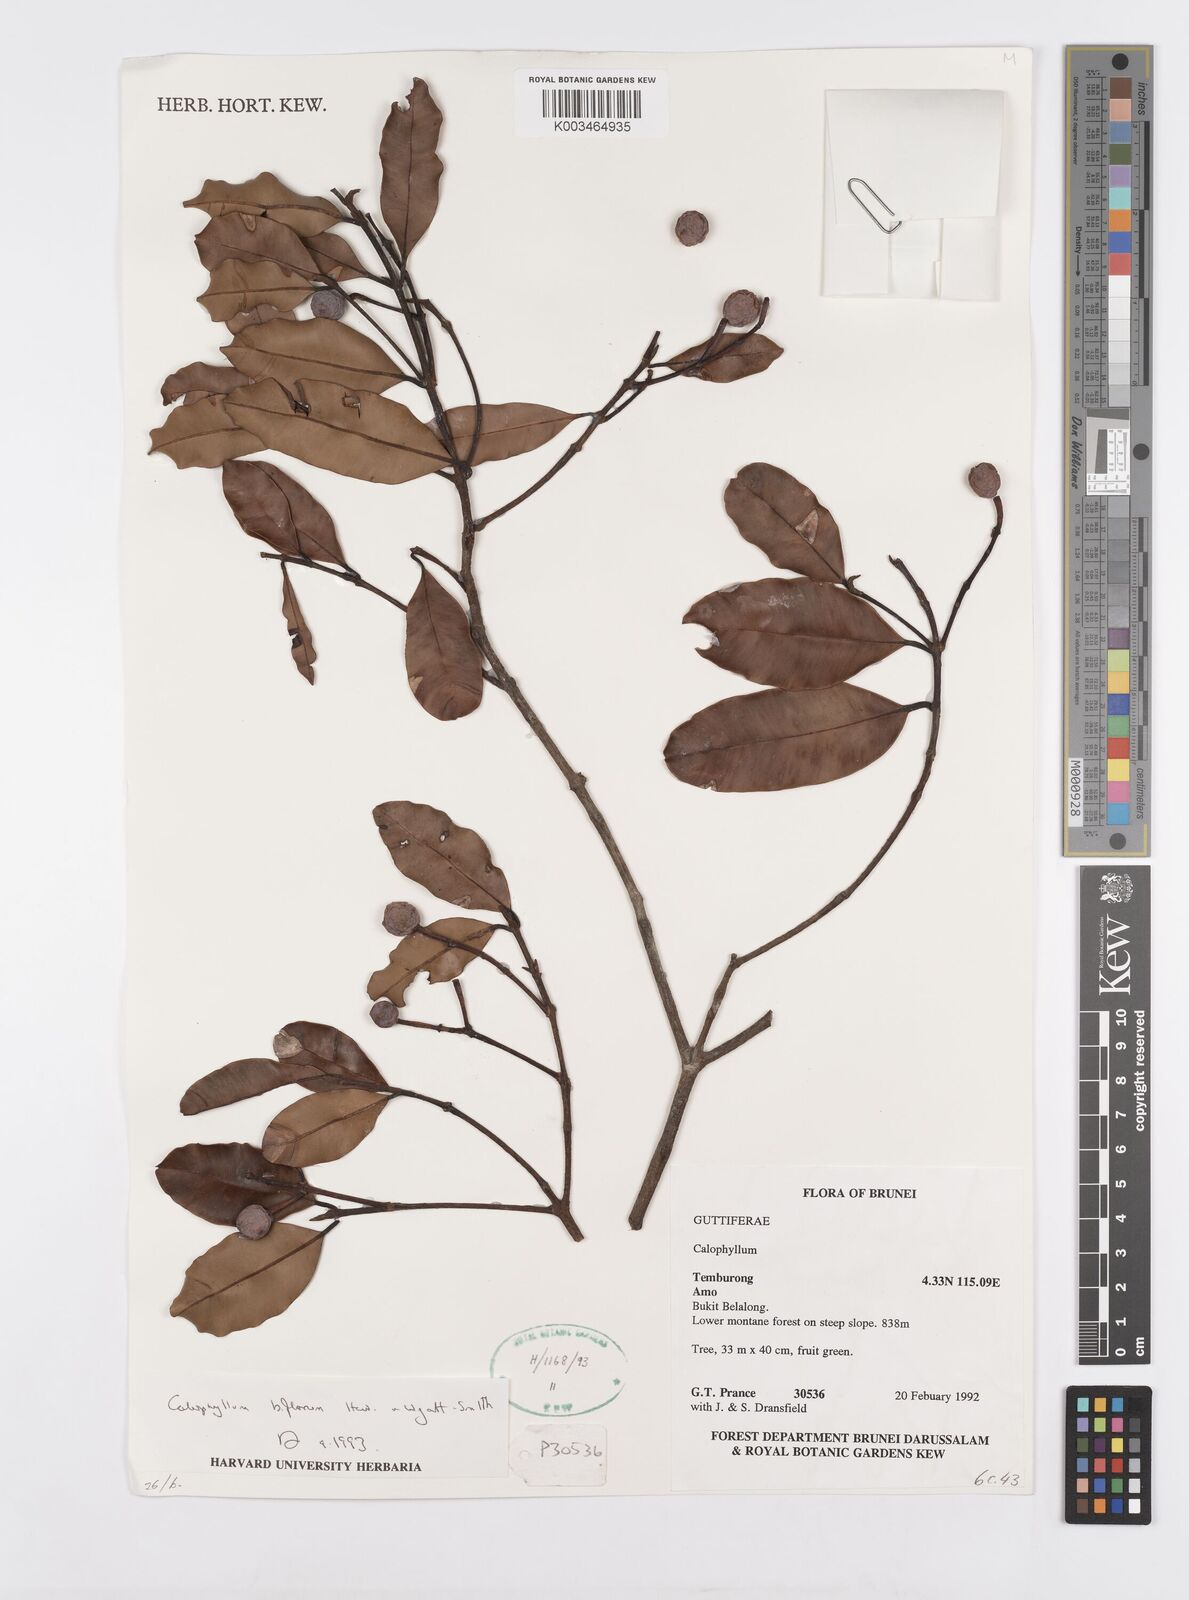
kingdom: Plantae
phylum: Tracheophyta
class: Magnoliopsida
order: Malpighiales
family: Calophyllaceae
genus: Calophyllum
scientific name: Calophyllum biflorum
